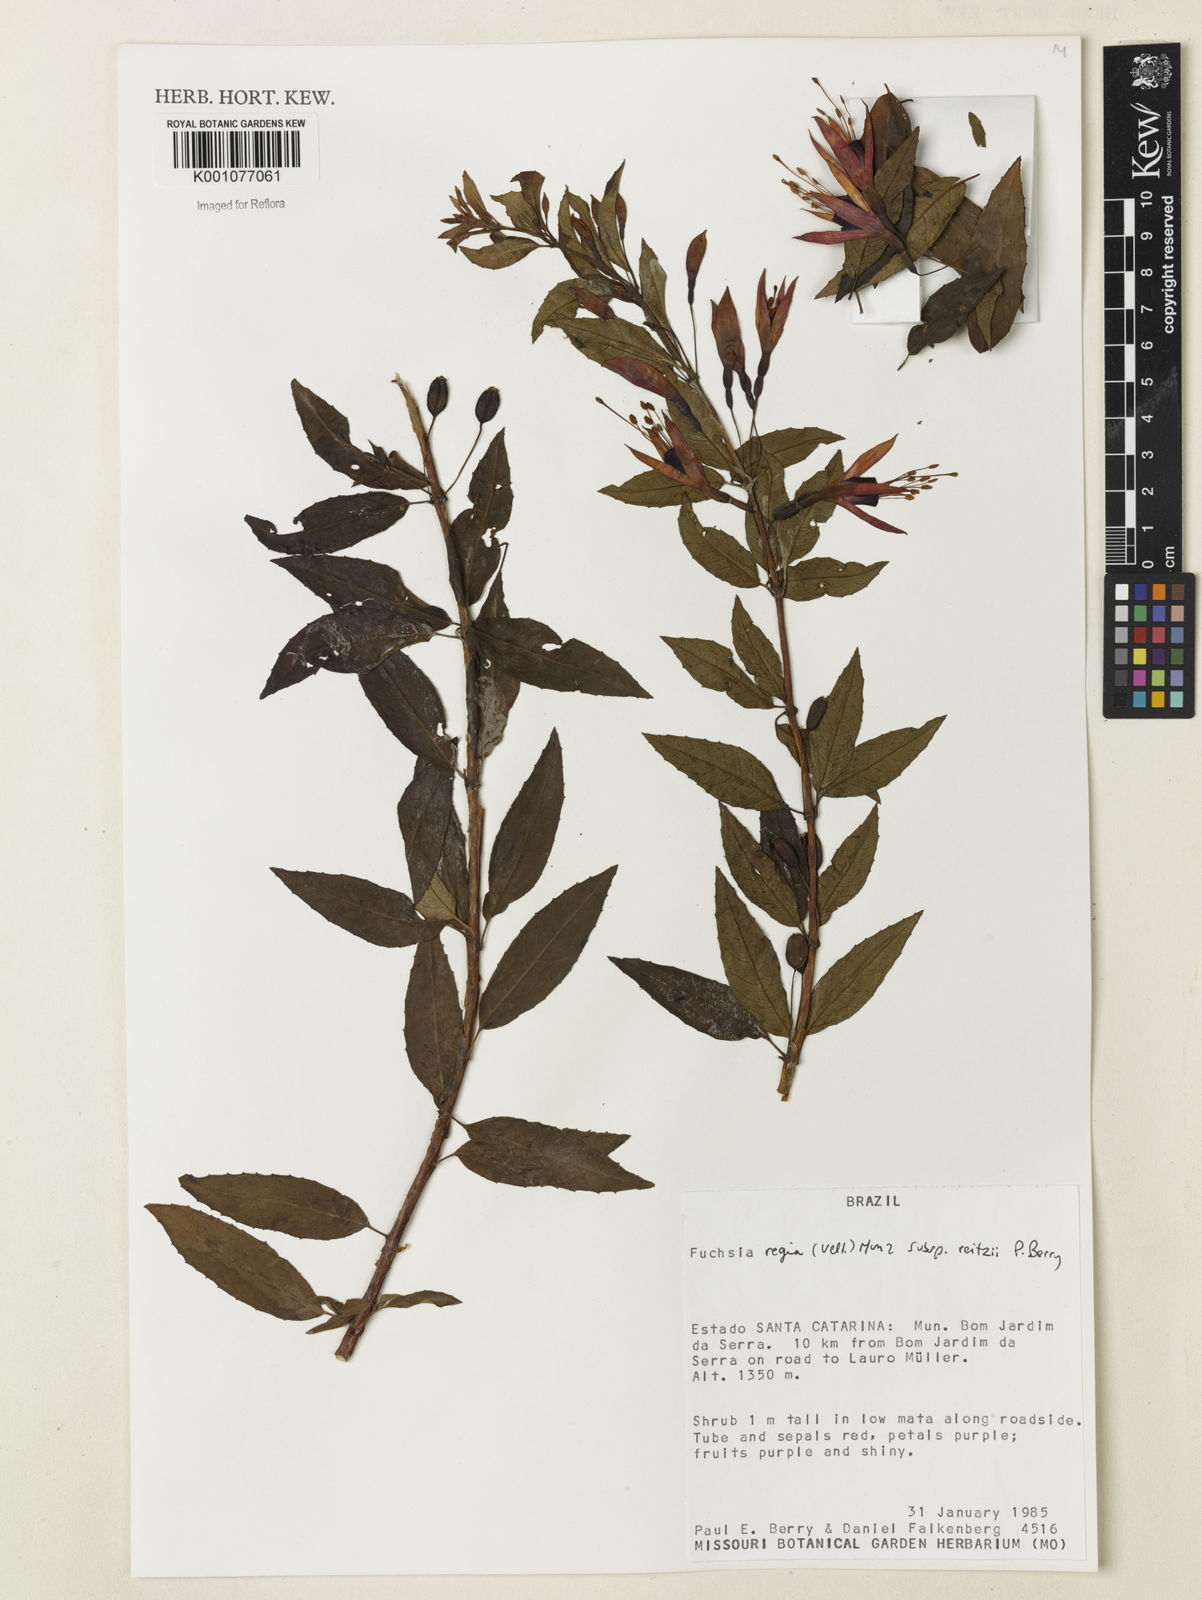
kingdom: Plantae
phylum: Tracheophyta
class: Magnoliopsida
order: Myrtales
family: Onagraceae
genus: Fuchsia
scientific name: Fuchsia regia
